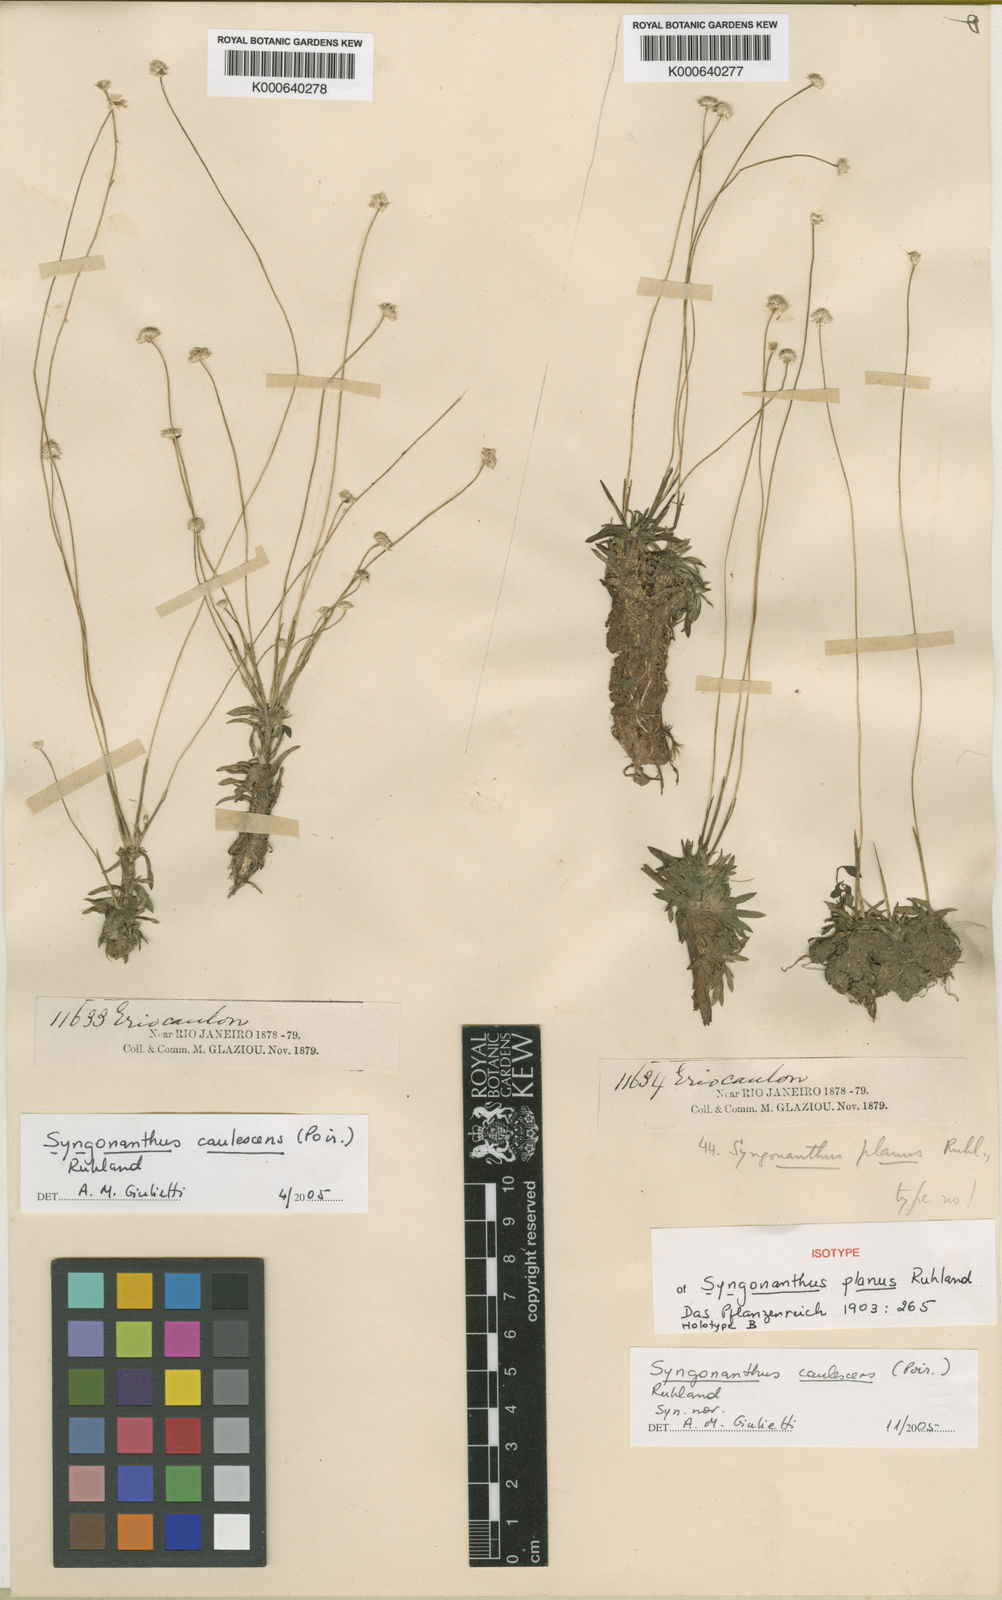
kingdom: Plantae
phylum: Tracheophyta
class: Liliopsida
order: Poales
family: Eriocaulaceae
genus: Syngonanthus
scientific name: Syngonanthus caulescens
